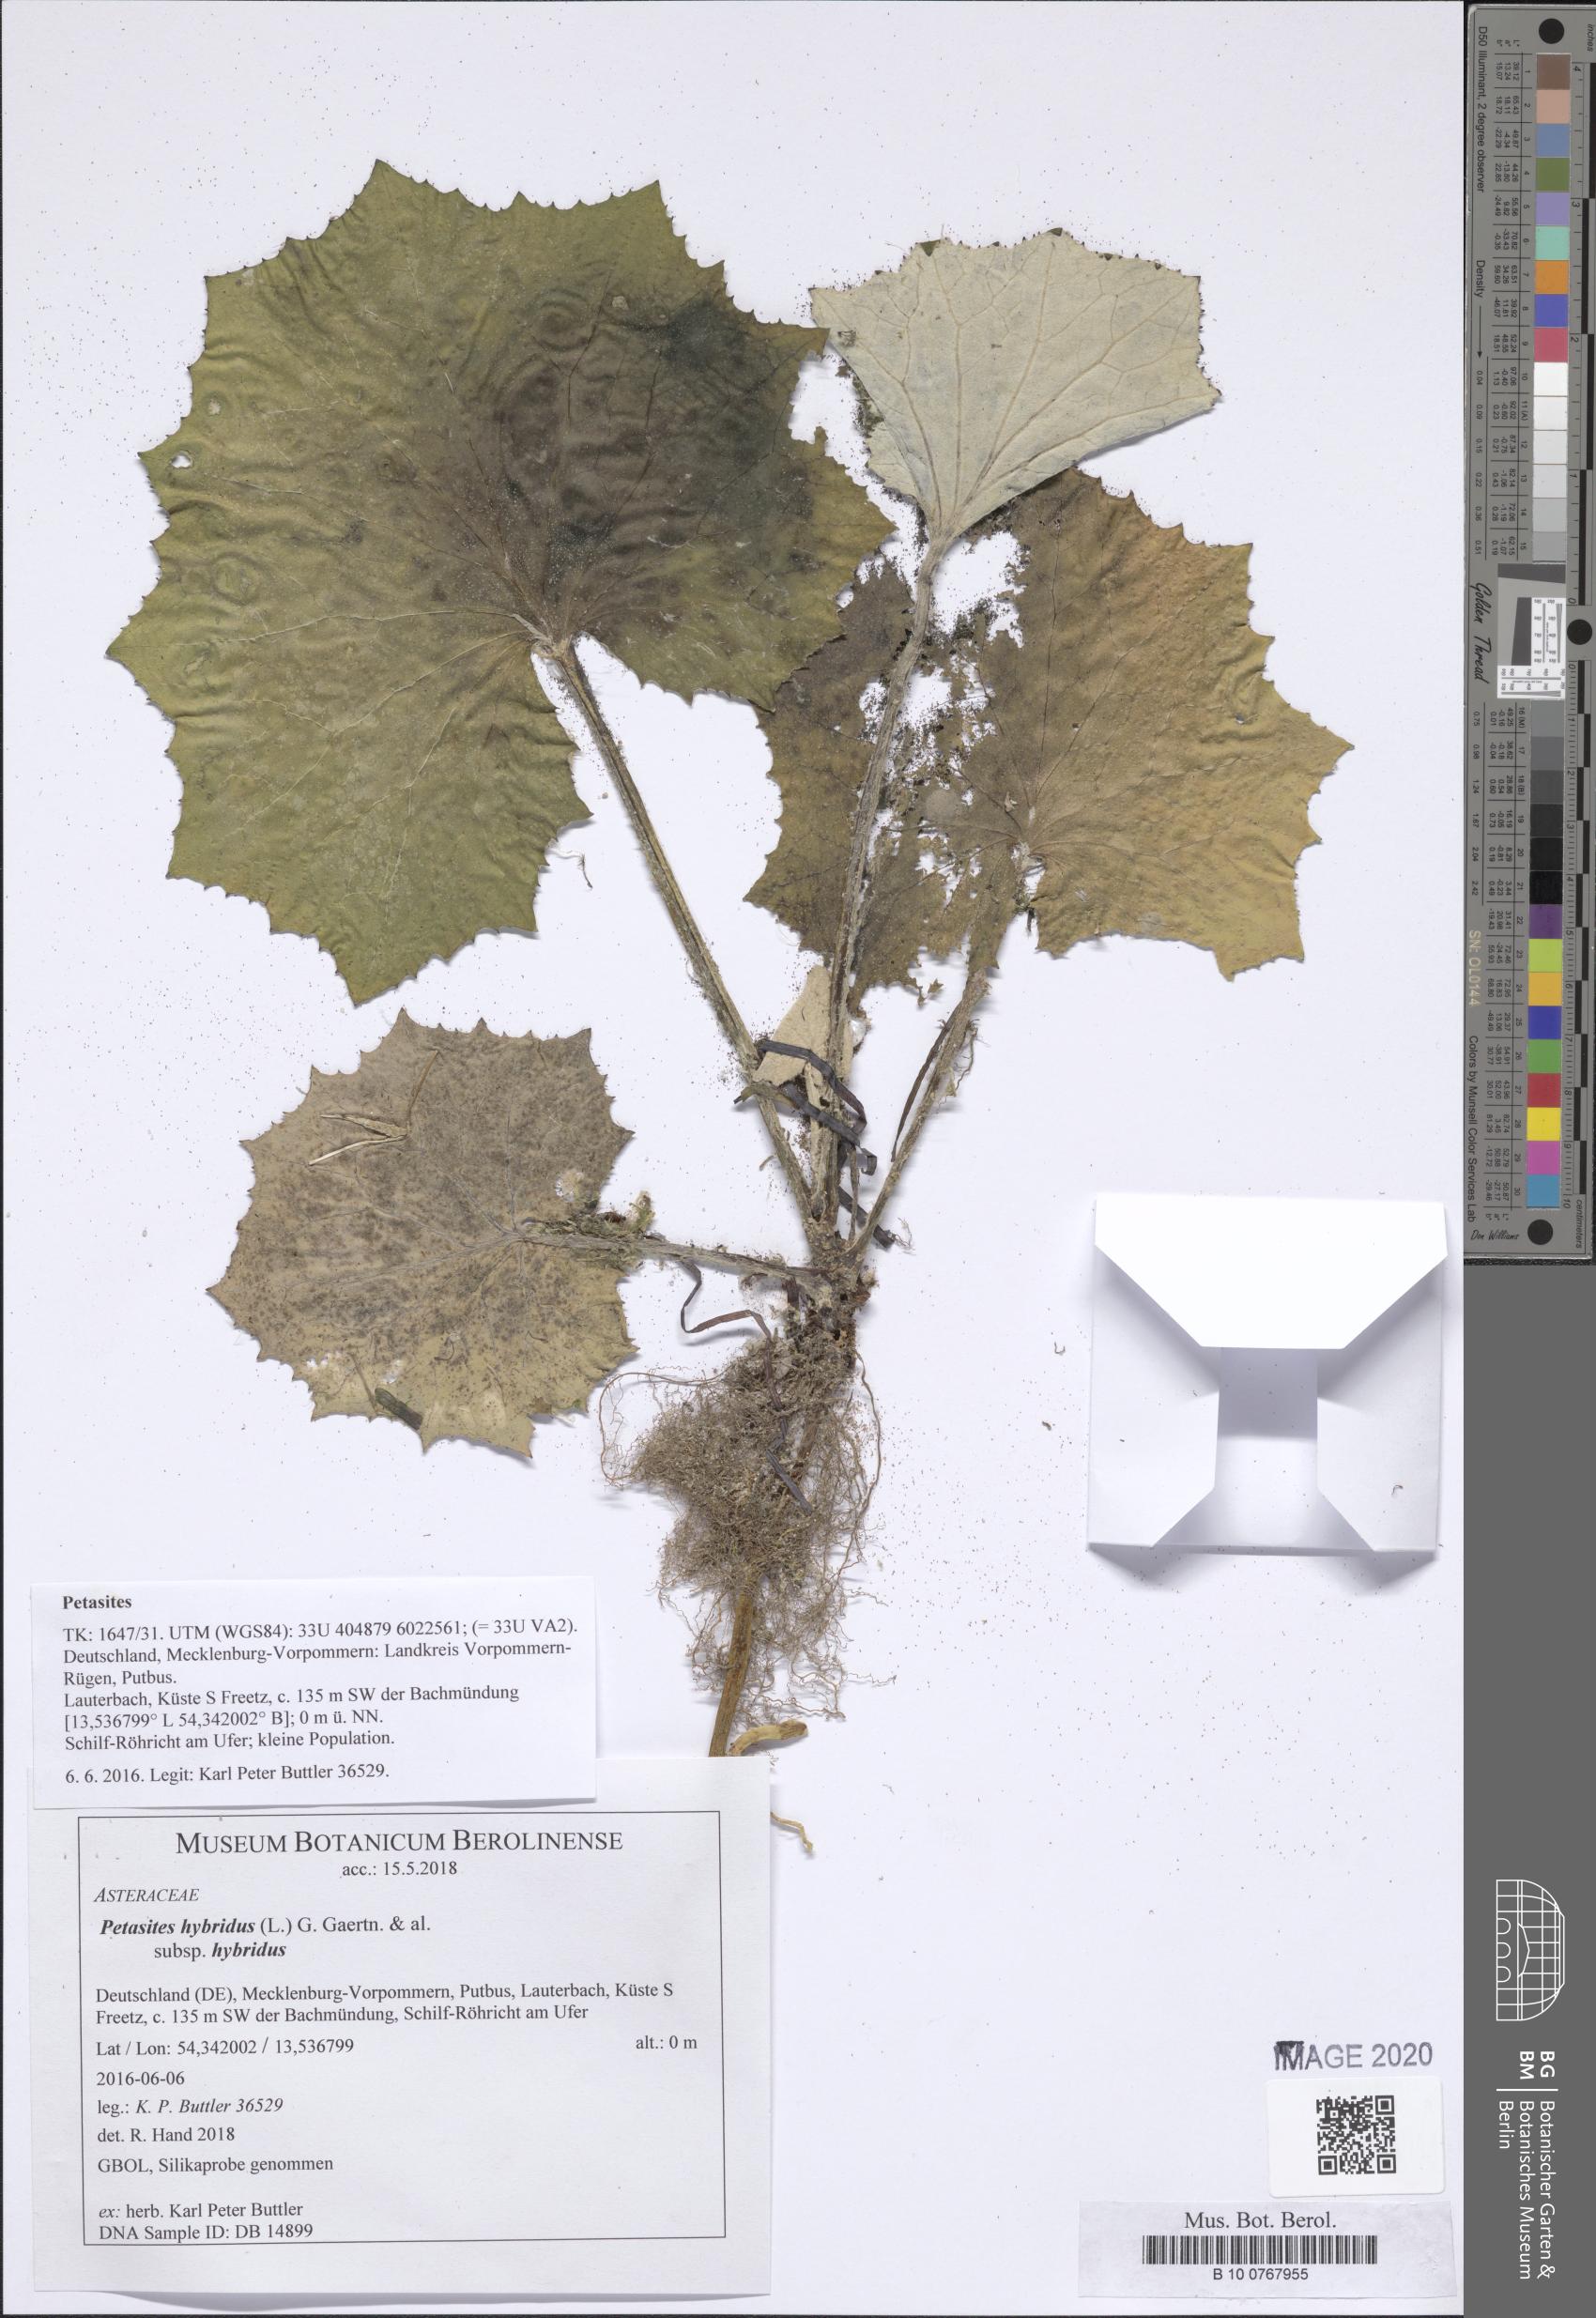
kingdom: Plantae
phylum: Tracheophyta
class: Magnoliopsida
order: Asterales
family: Asteraceae
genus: Petasites
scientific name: Petasites hybridus
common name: Butterbur
